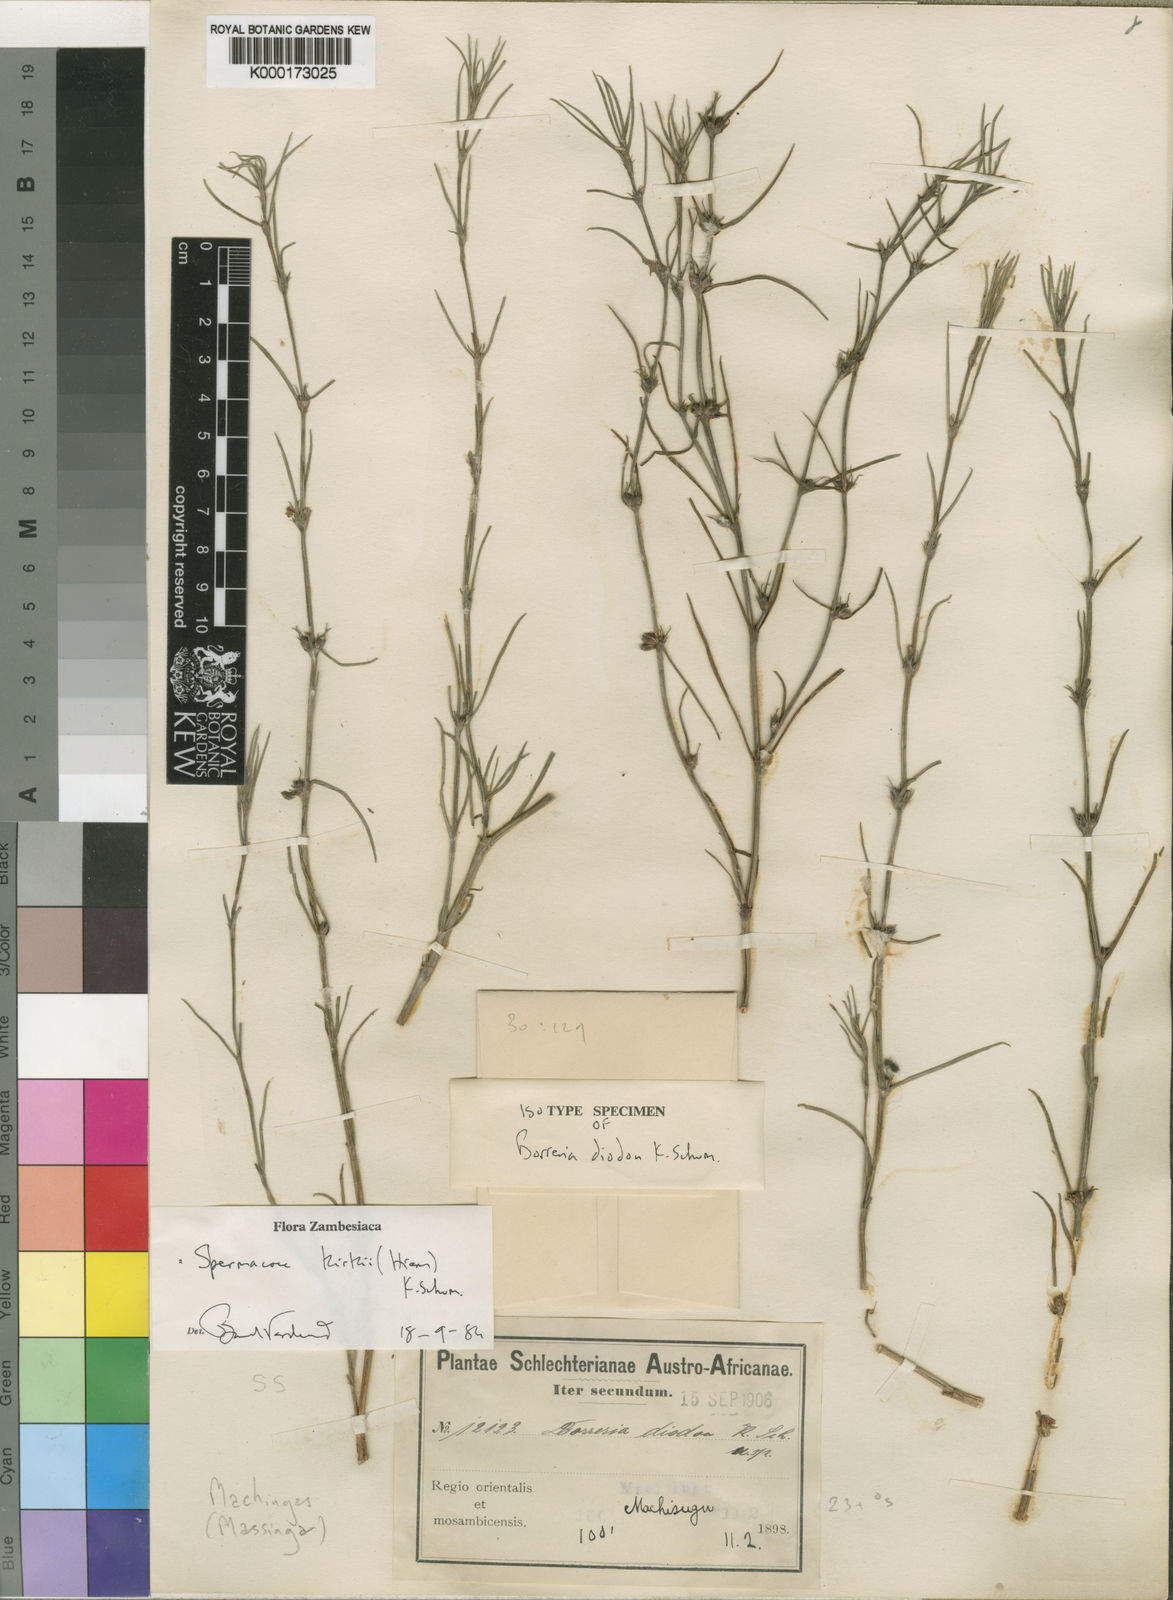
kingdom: Plantae
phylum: Tracheophyta
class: Magnoliopsida
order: Gentianales
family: Rubiaceae
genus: Spermacoce
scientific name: Spermacoce kirkii
